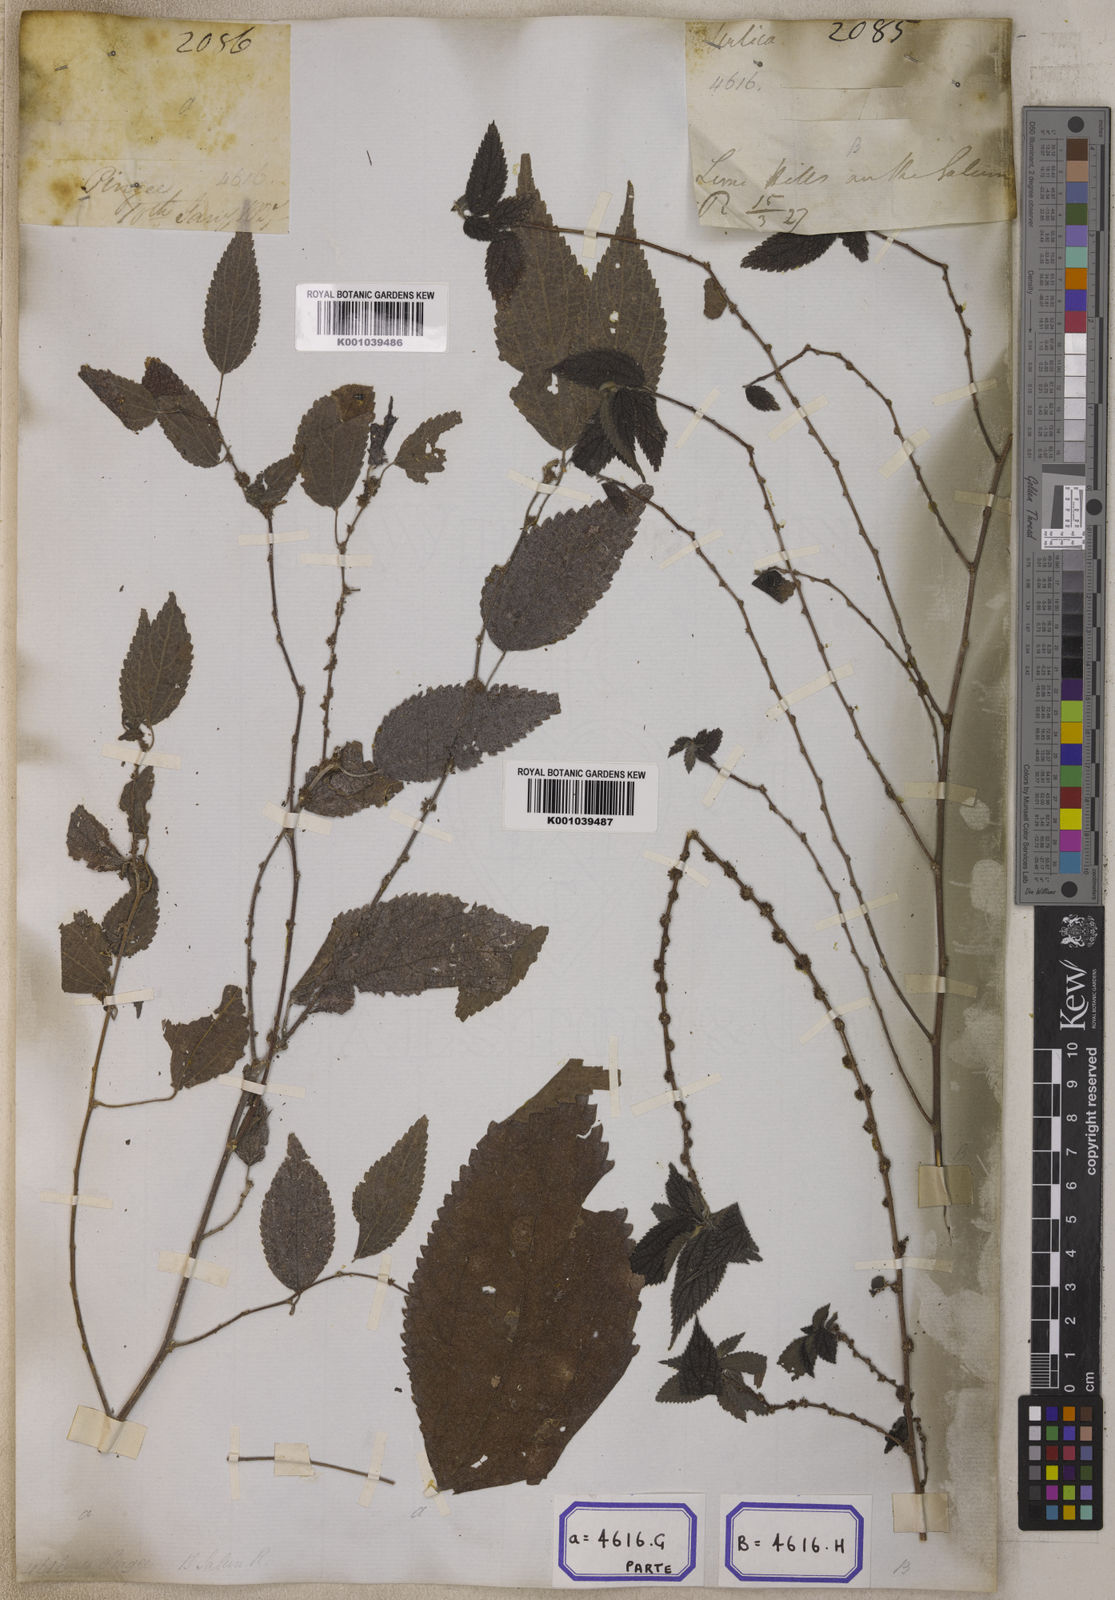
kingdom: Plantae
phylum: Tracheophyta
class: Magnoliopsida
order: Rosales
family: Urticaceae
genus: Pouzolzia
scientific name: Pouzolzia sanguinea
